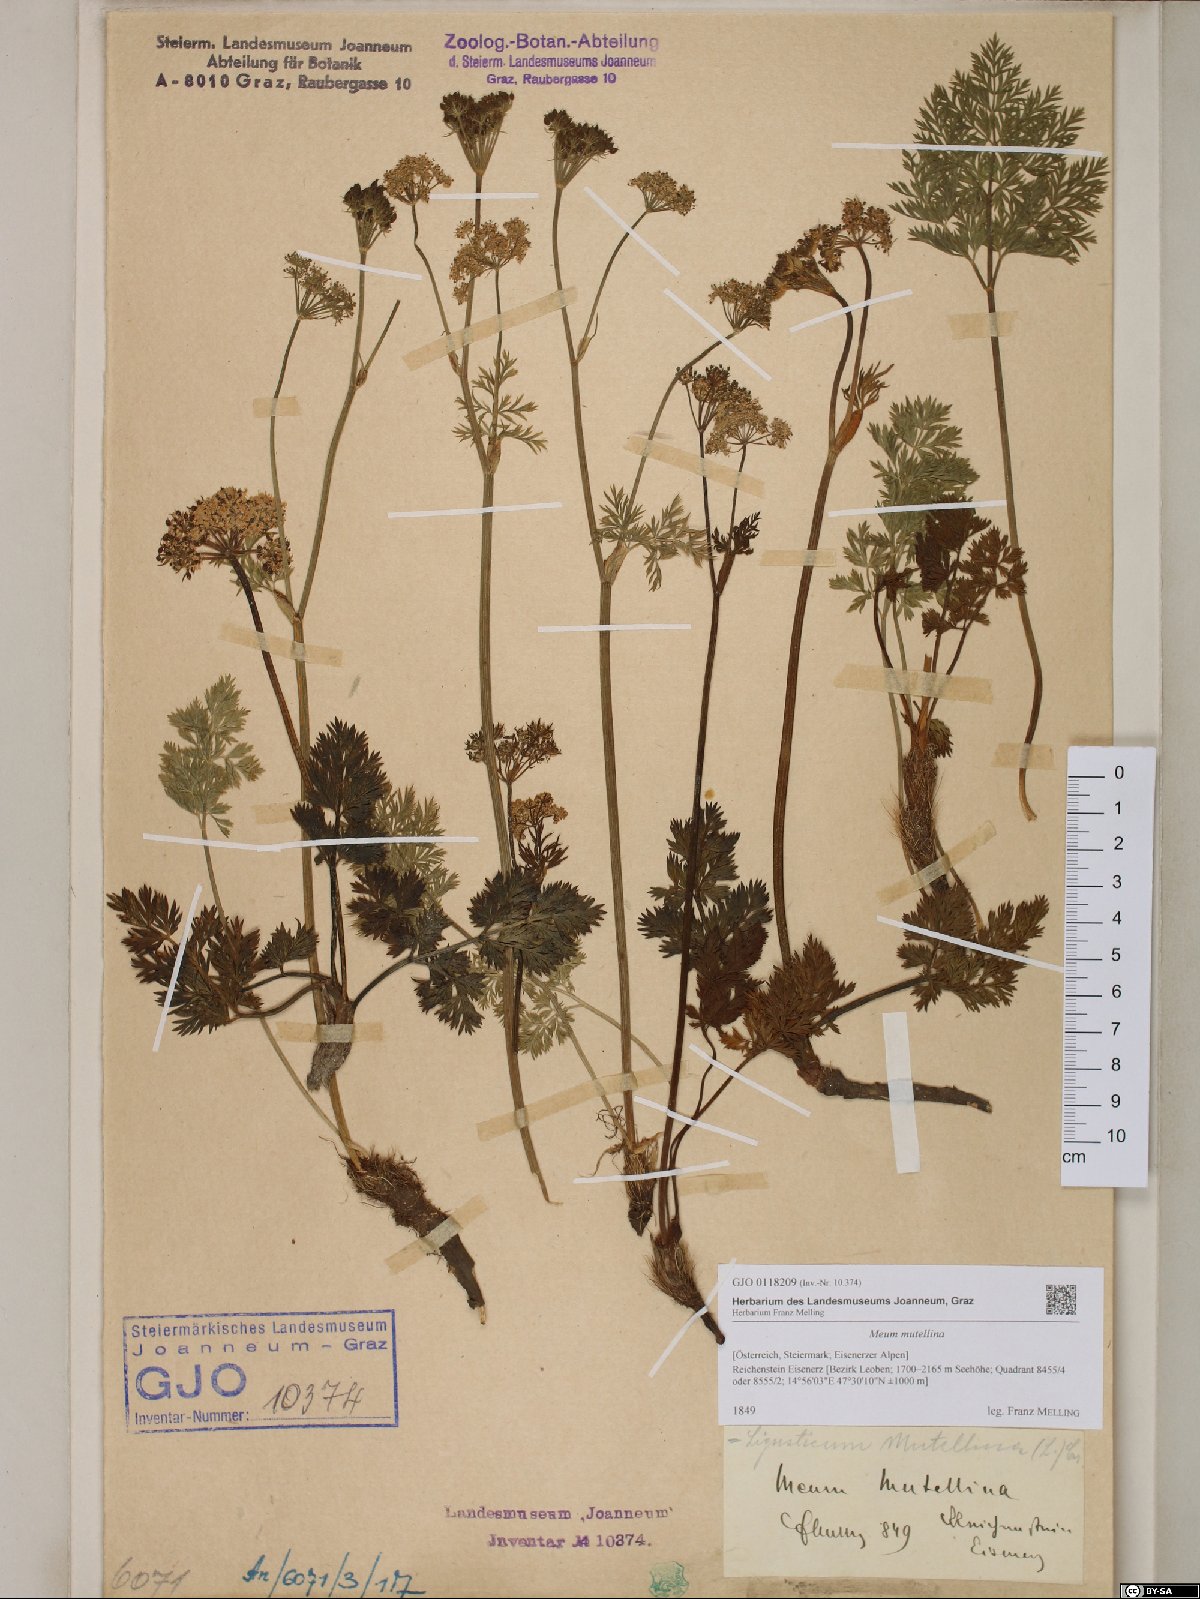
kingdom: Plantae
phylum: Tracheophyta
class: Magnoliopsida
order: Apiales
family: Apiaceae
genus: Mutellina
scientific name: Mutellina adonidifolia
